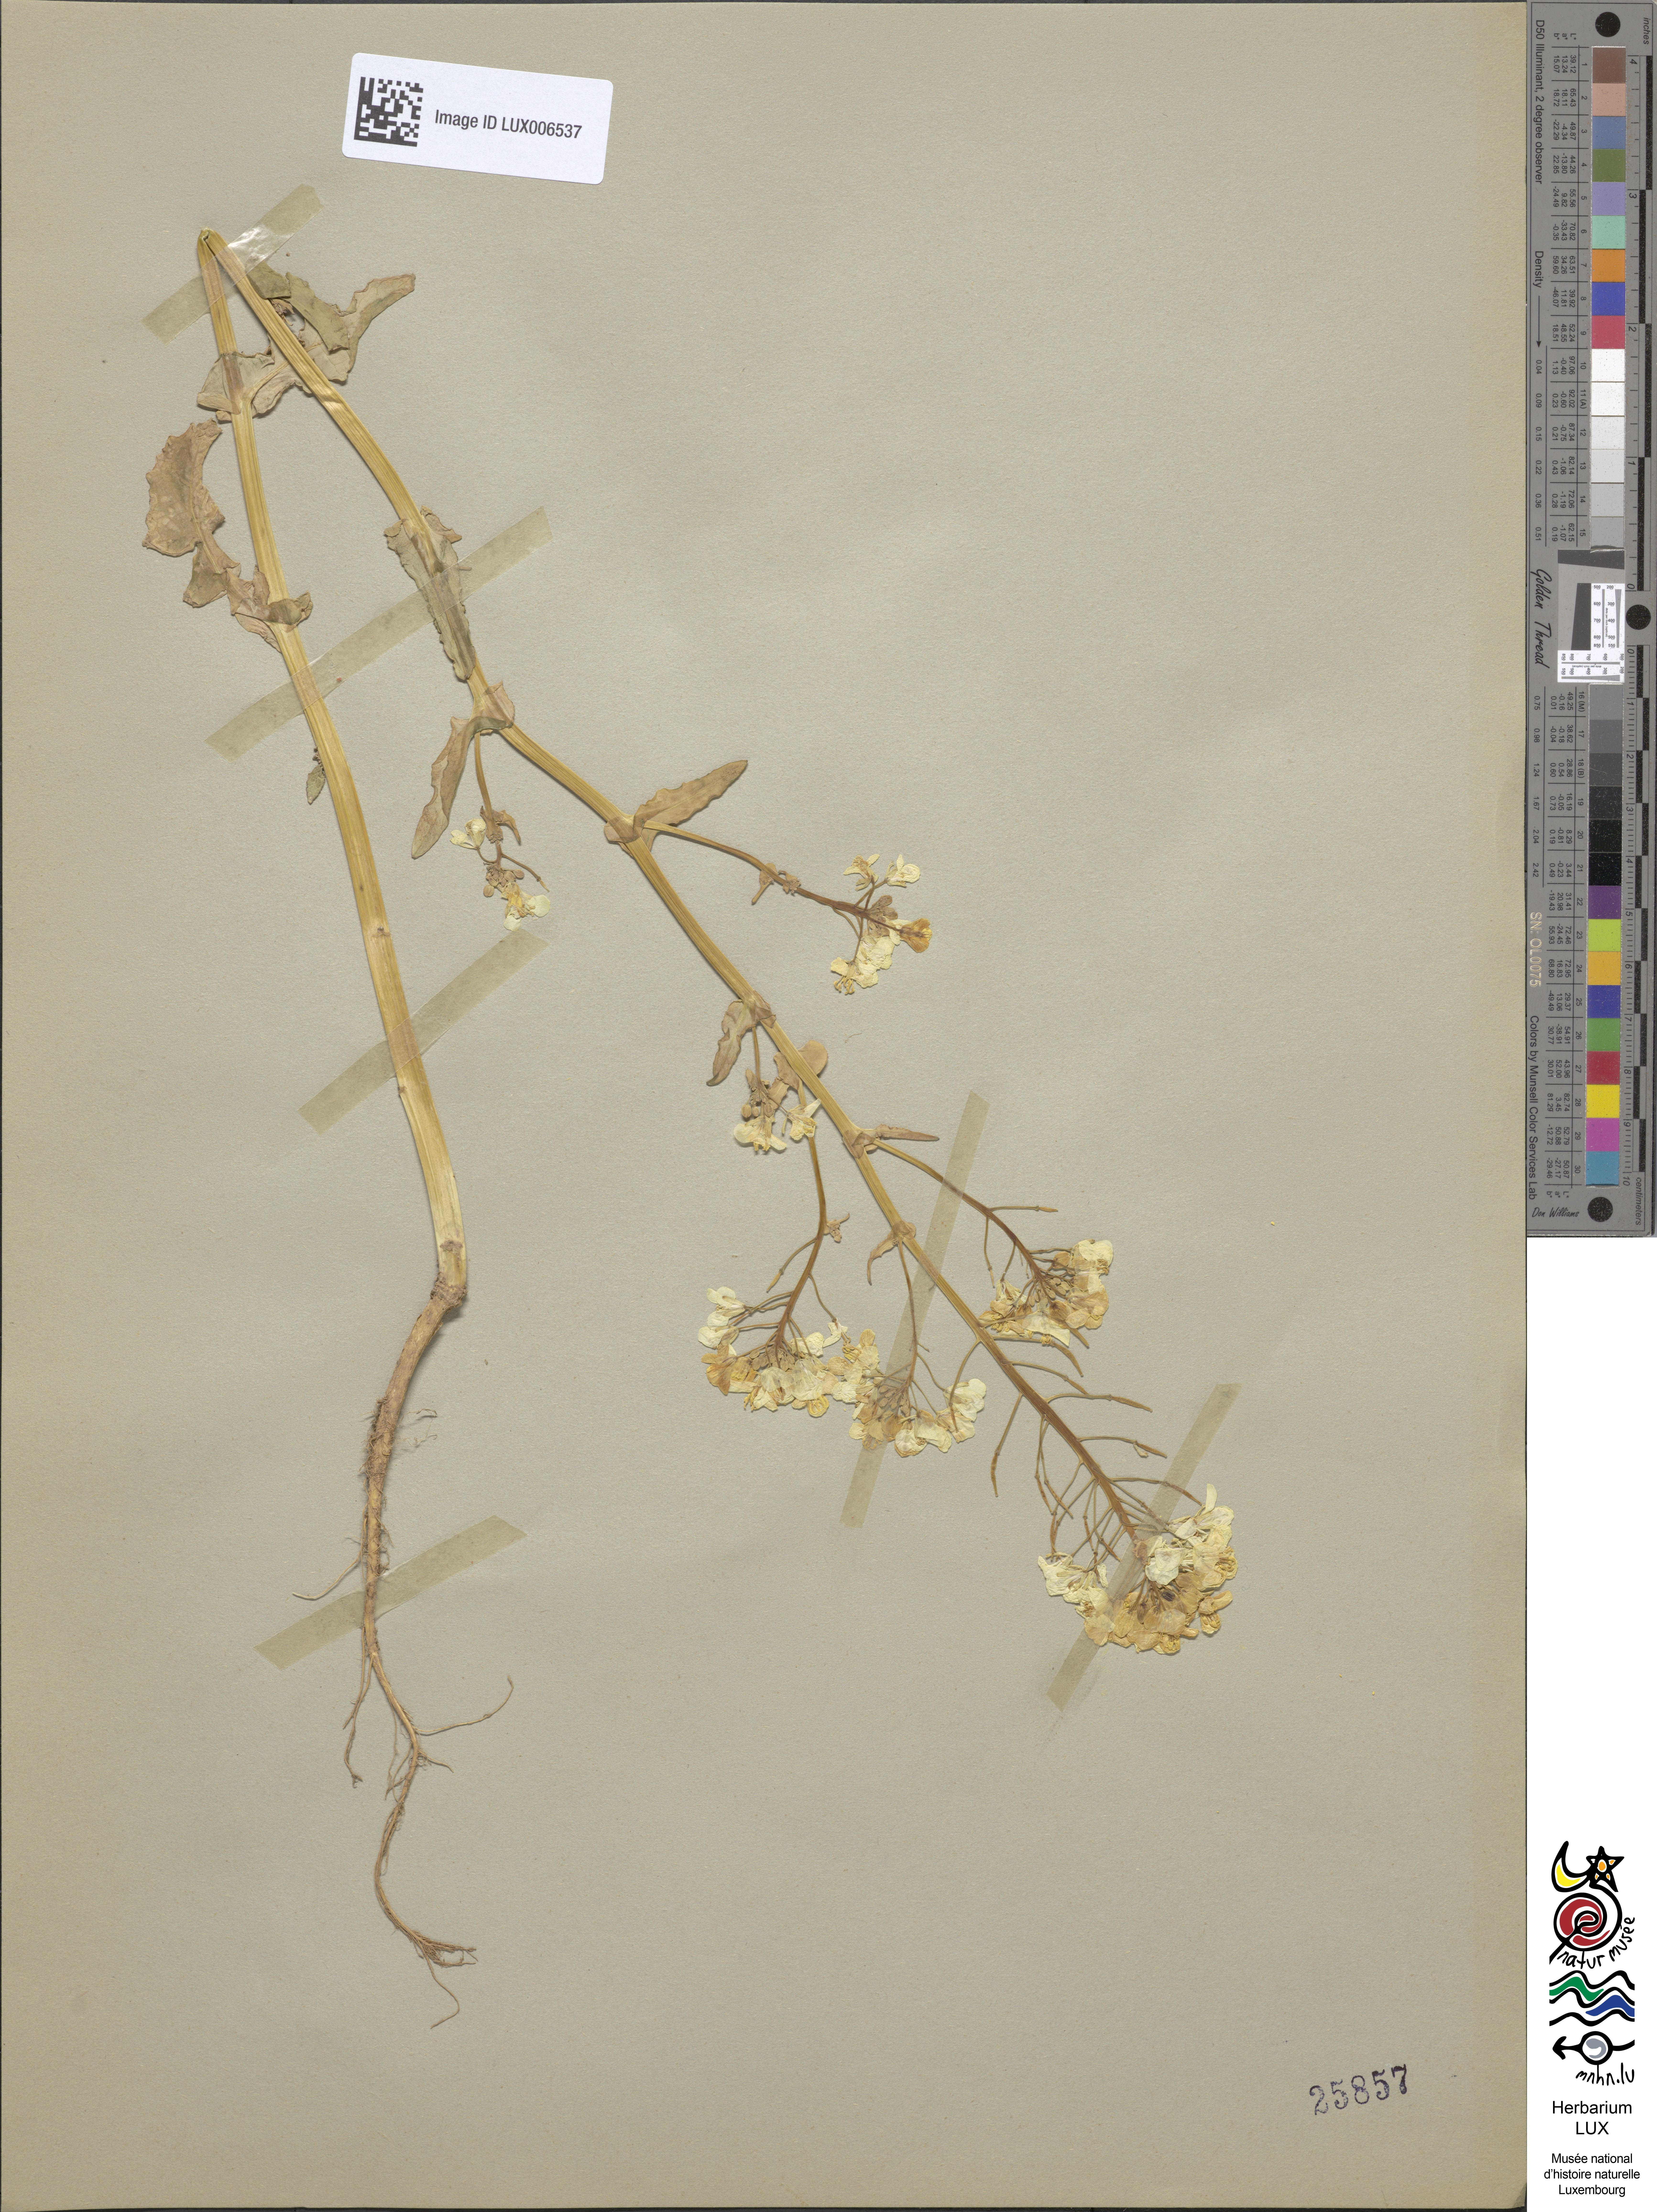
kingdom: Plantae
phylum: Tracheophyta
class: Magnoliopsida
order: Brassicales
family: Brassicaceae
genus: Brassica
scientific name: Brassica
